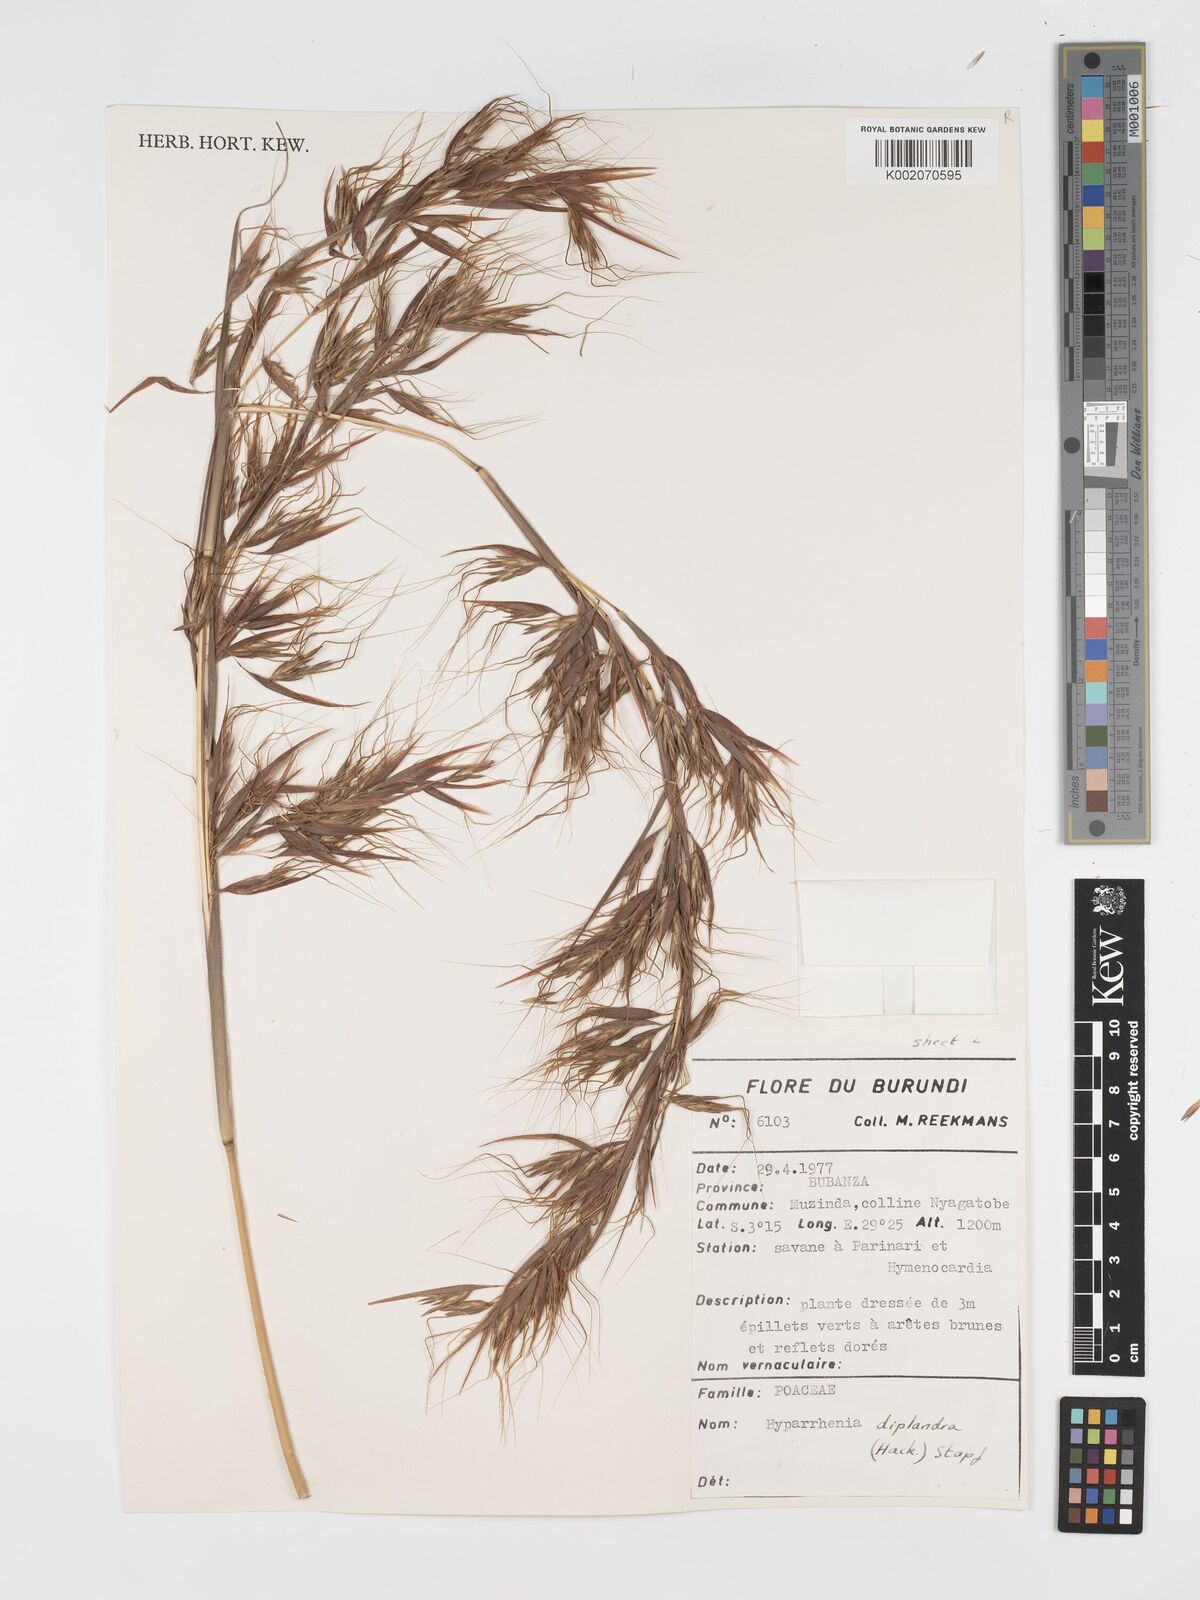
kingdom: Plantae
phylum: Tracheophyta
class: Liliopsida
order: Poales
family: Poaceae
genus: Hyparrhenia
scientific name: Hyparrhenia diplandra
